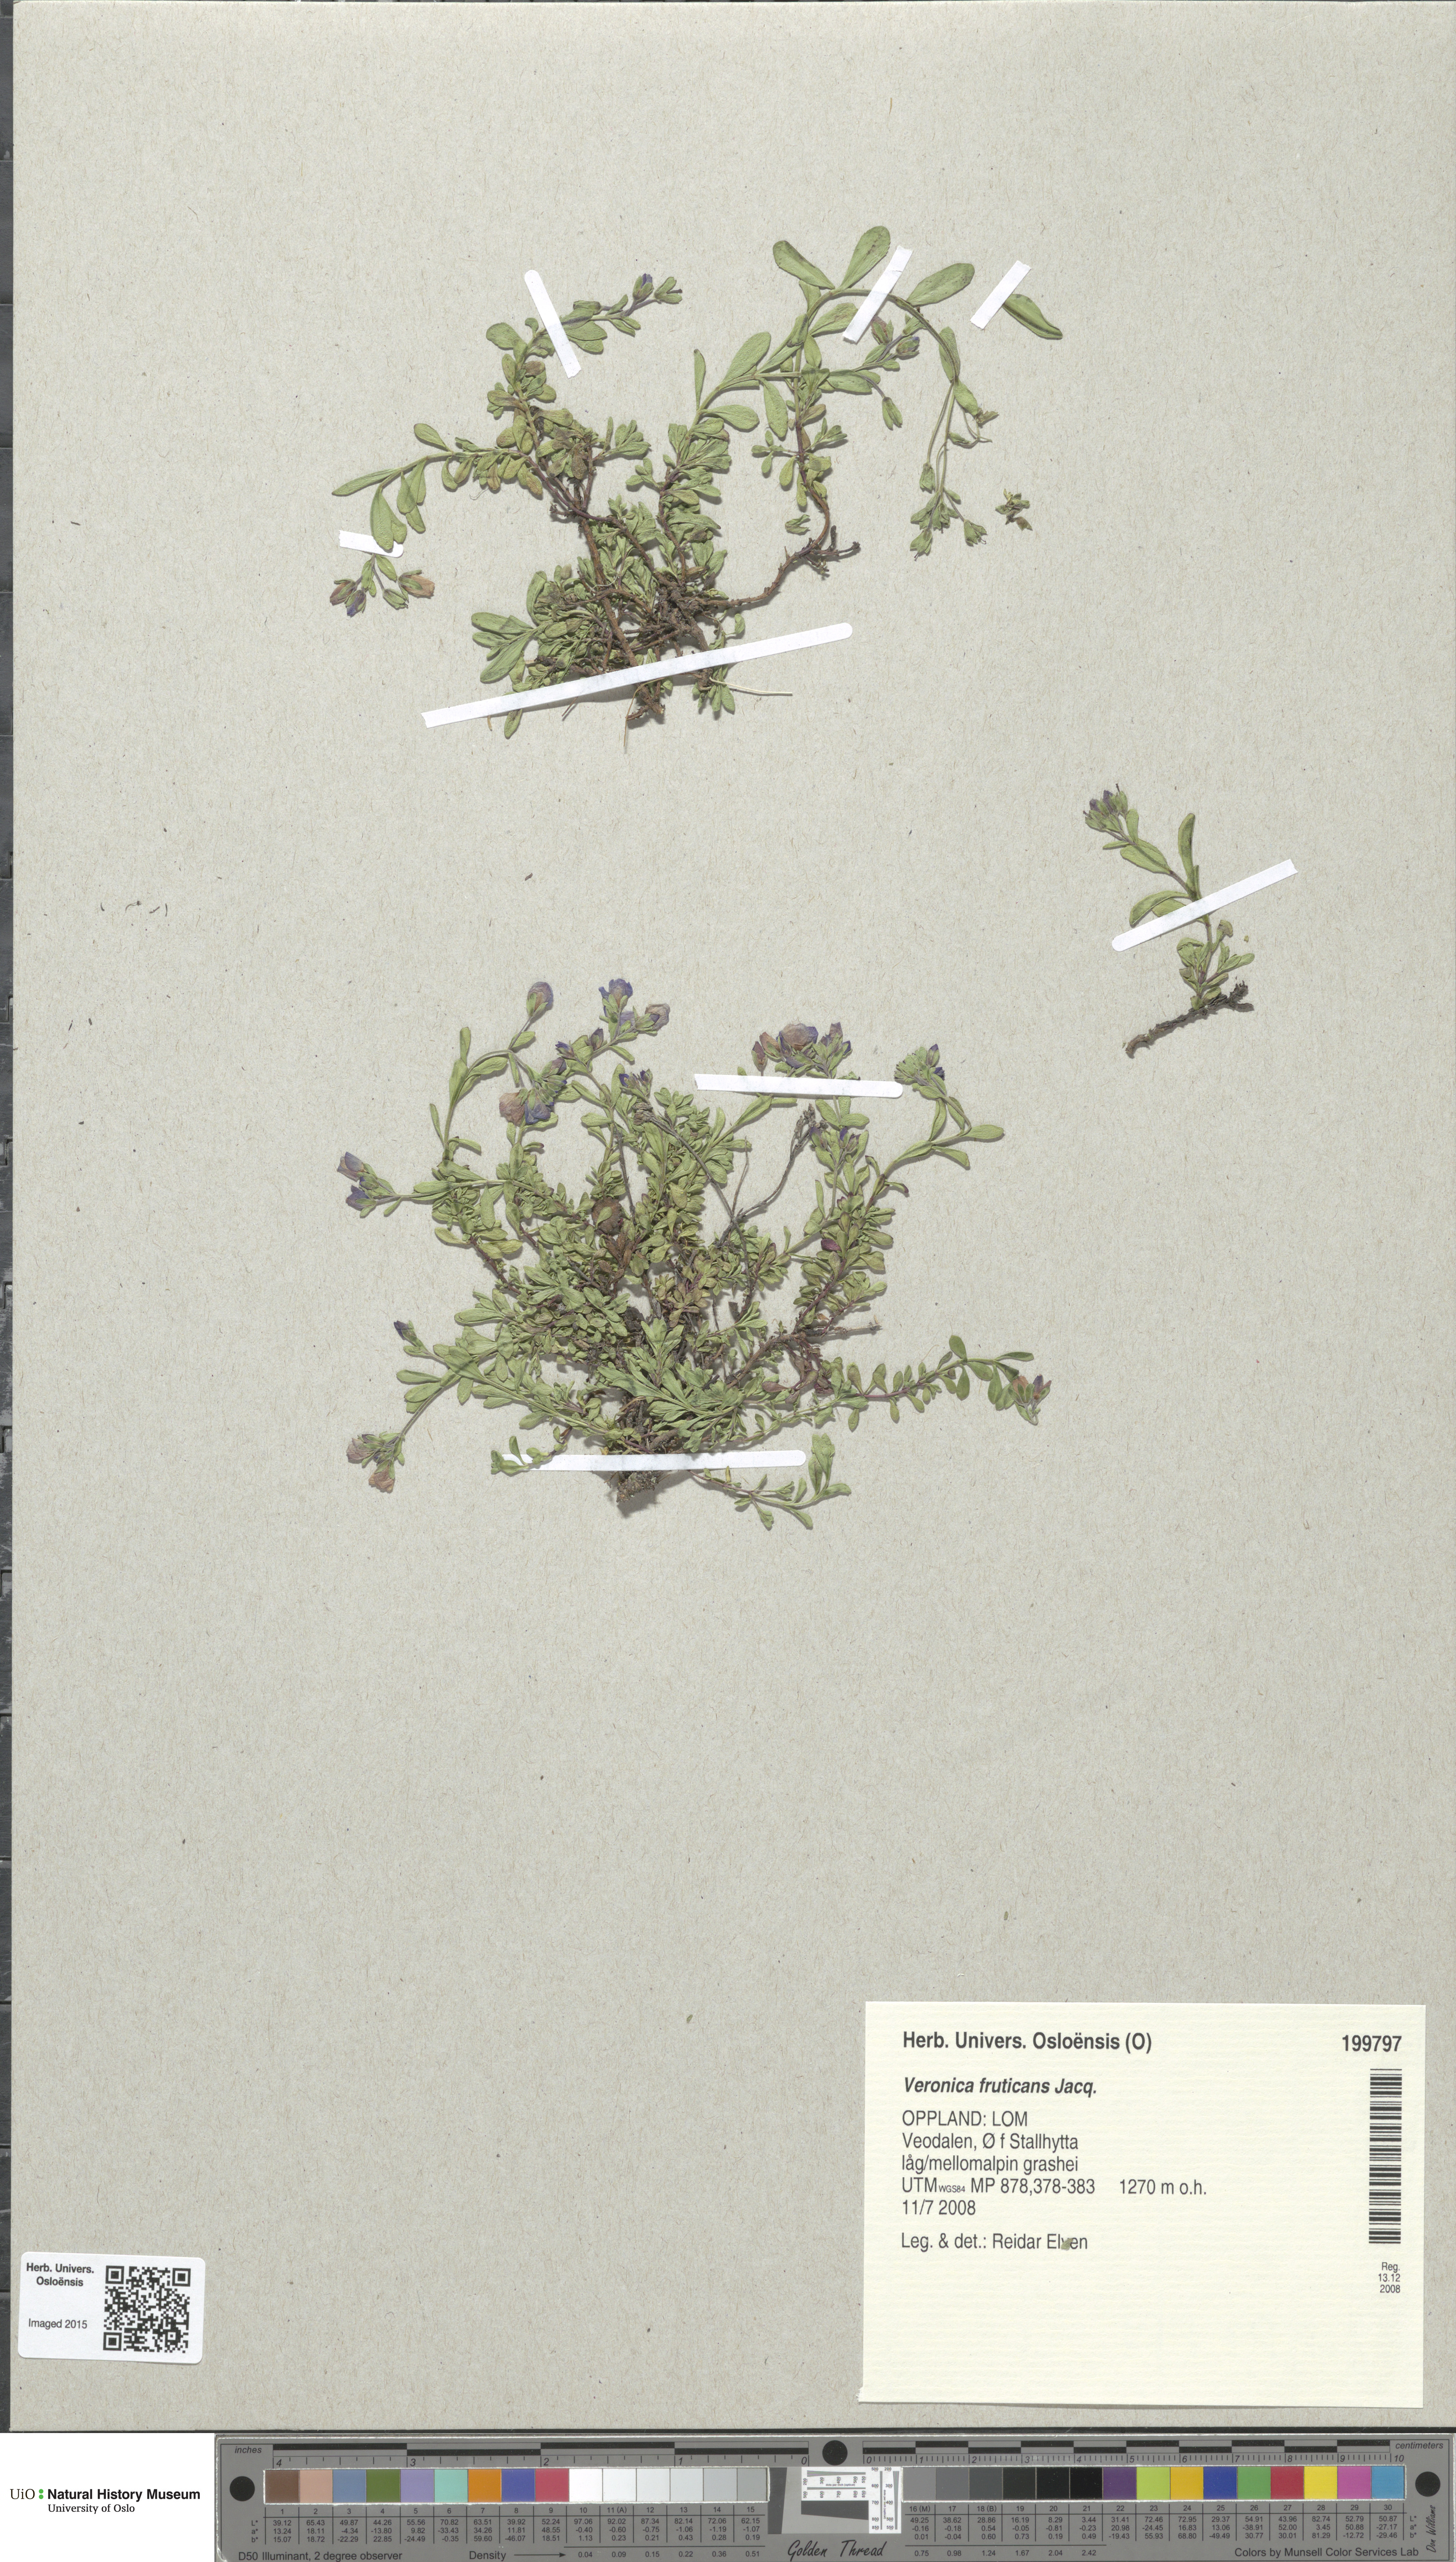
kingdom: Plantae
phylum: Tracheophyta
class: Magnoliopsida
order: Lamiales
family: Plantaginaceae
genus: Veronica
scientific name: Veronica fruticans
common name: Rock speedwell
